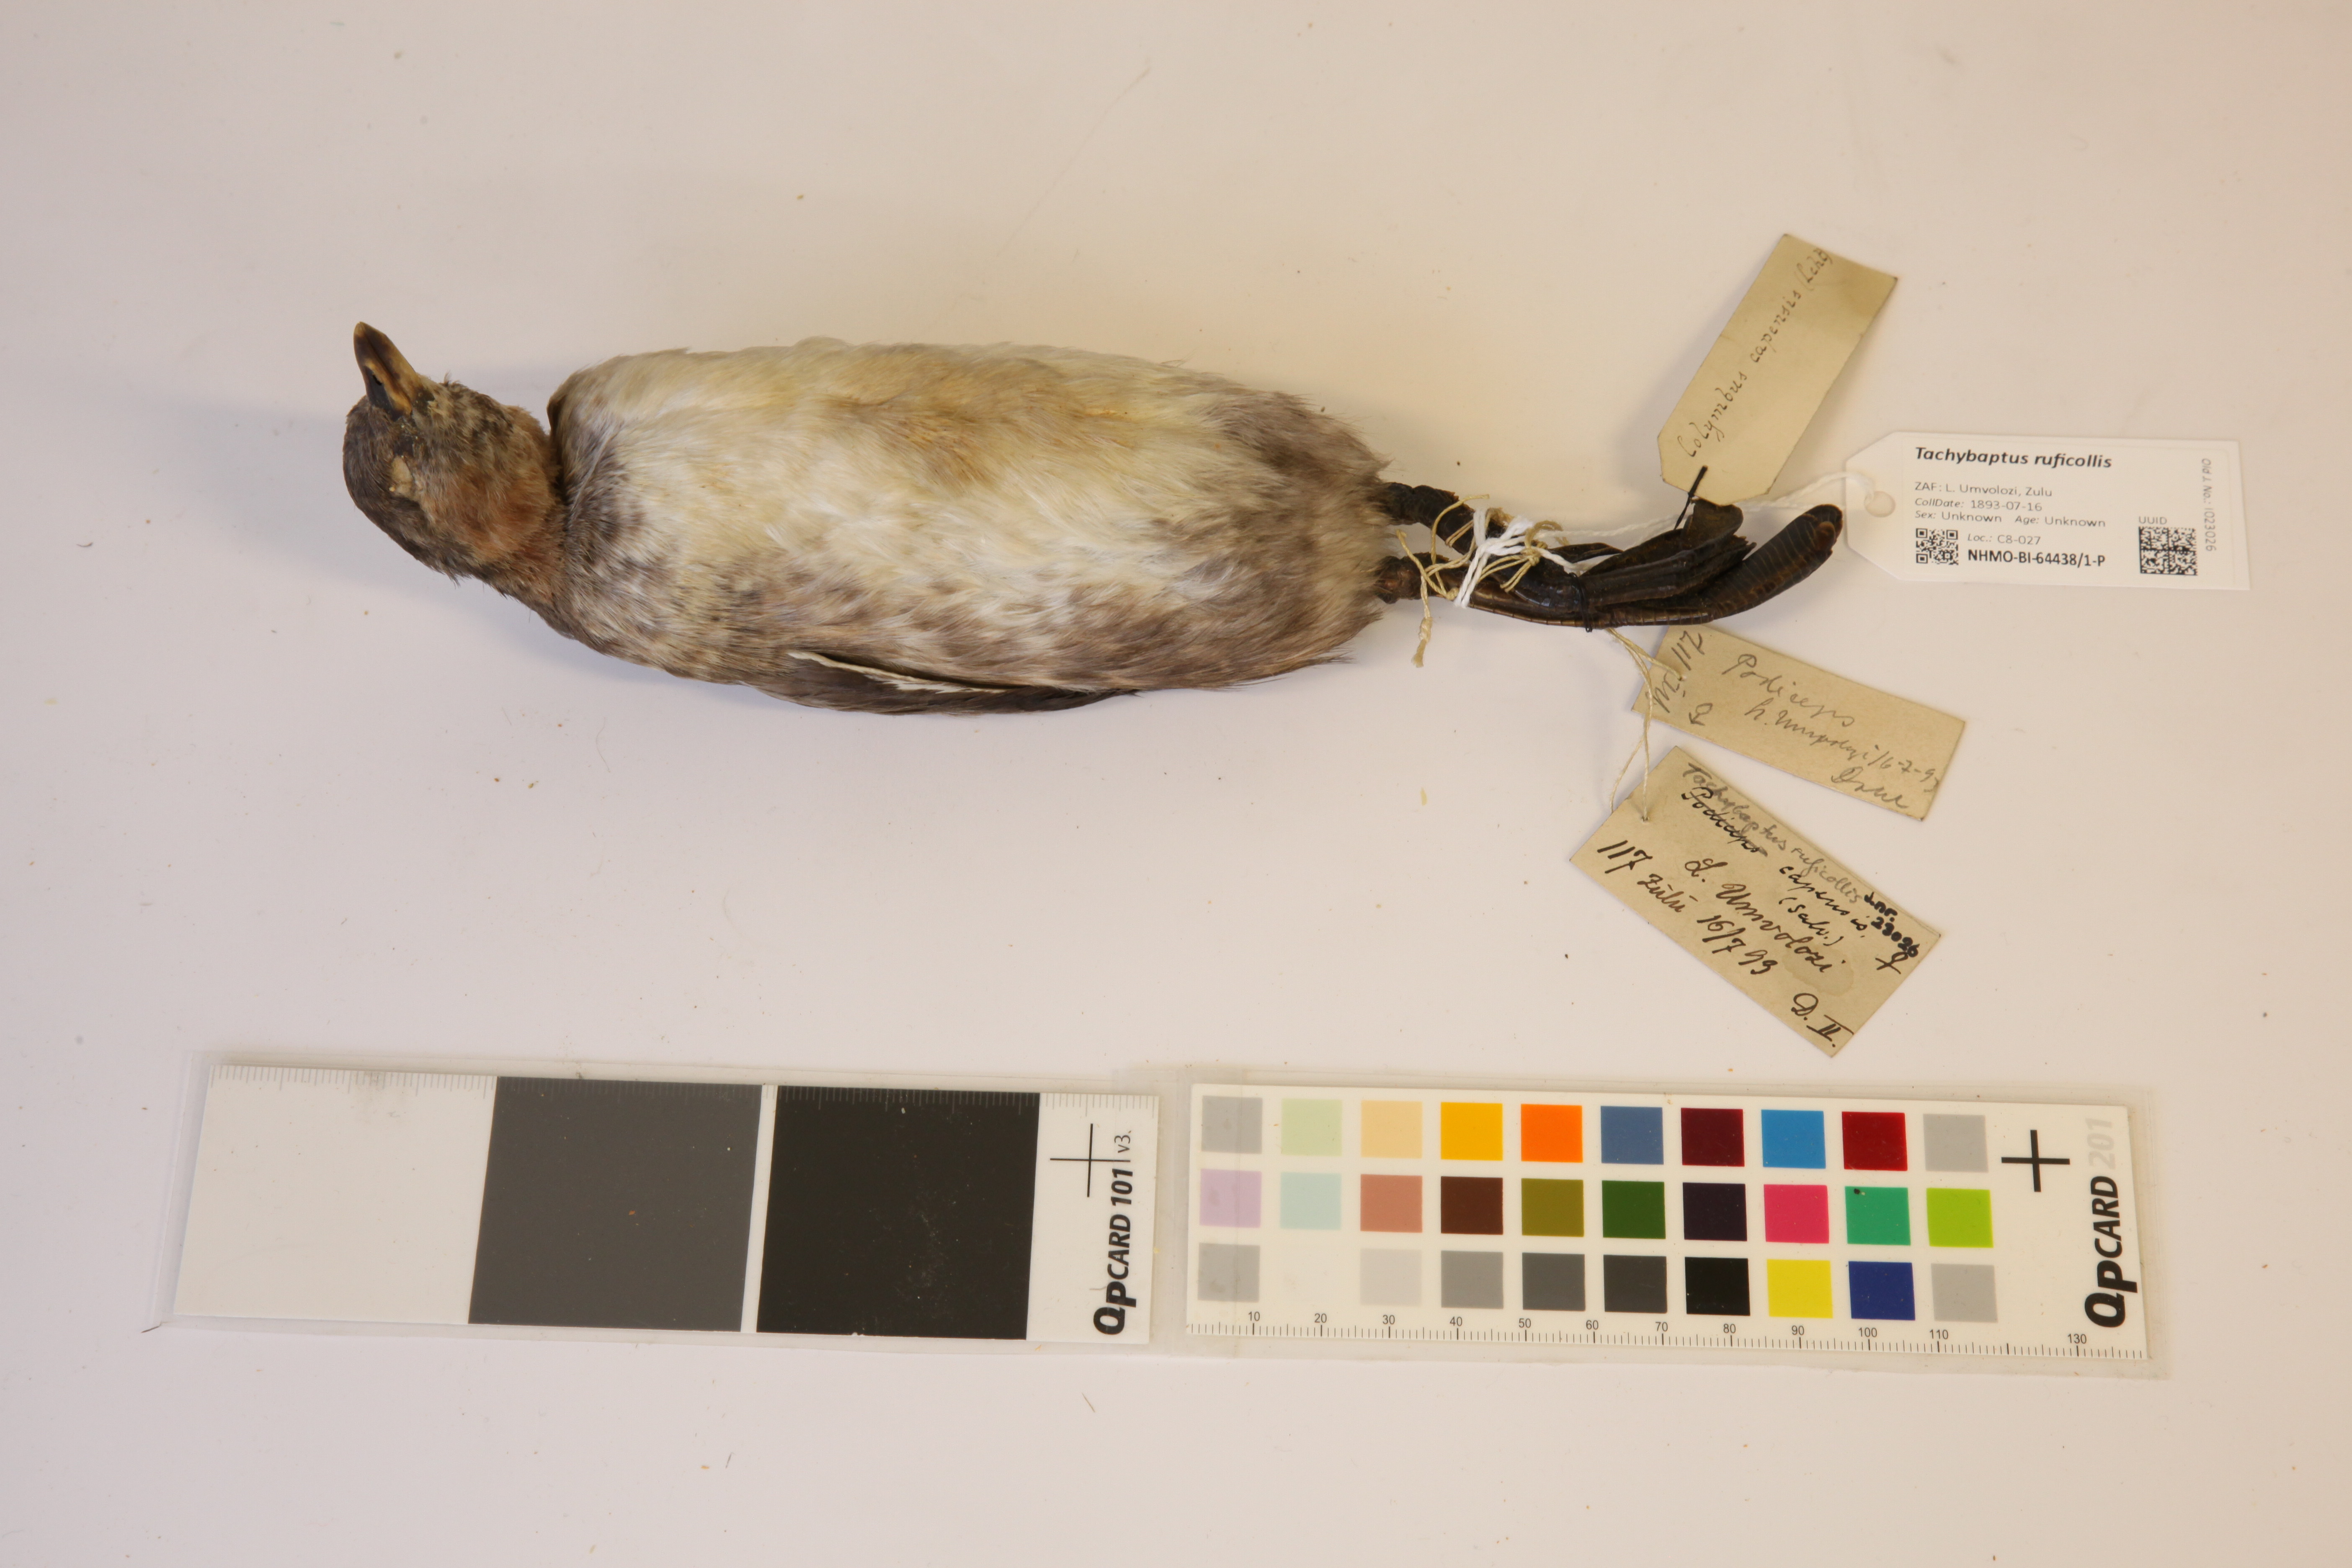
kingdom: Animalia
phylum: Chordata
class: Aves
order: Podicipediformes
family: Podicipedidae
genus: Tachybaptus
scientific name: Tachybaptus ruficollis
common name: Little grebe
